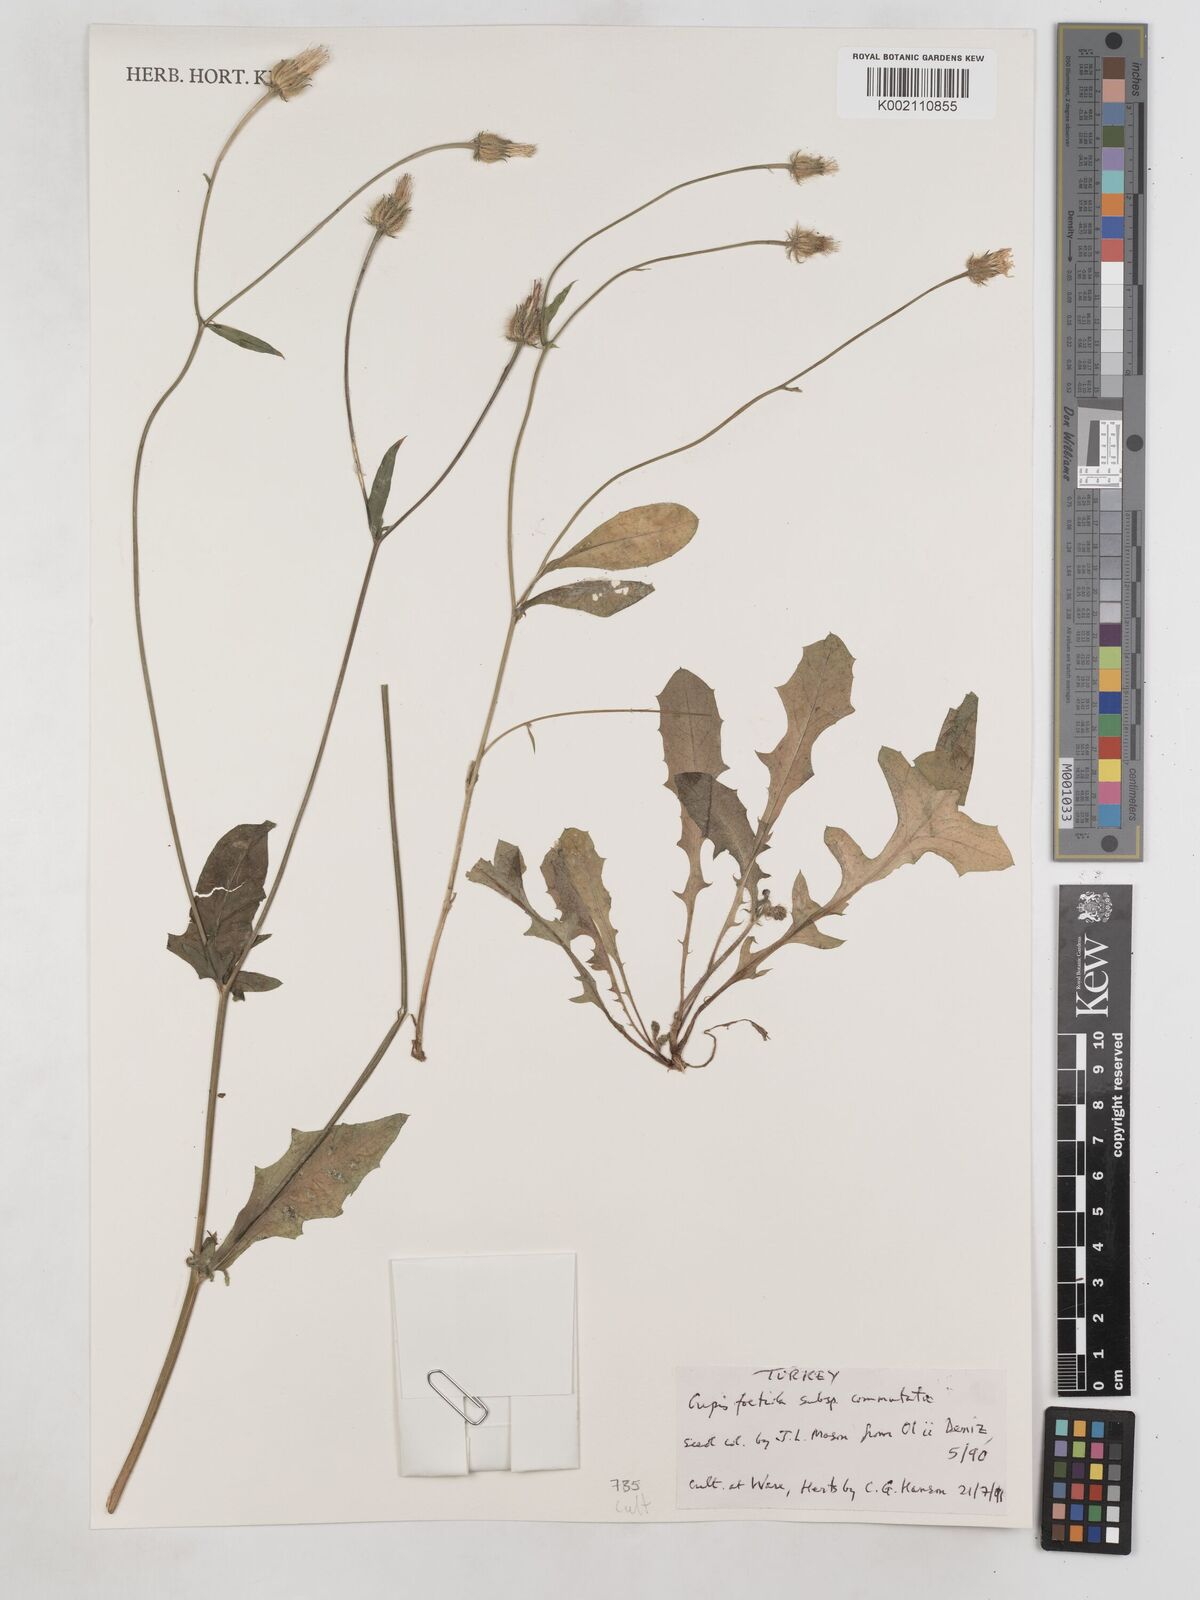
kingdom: Plantae
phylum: Tracheophyta
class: Magnoliopsida
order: Asterales
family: Asteraceae
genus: Crepis
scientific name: Crepis foetida
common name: Stinking hawk's-beard
